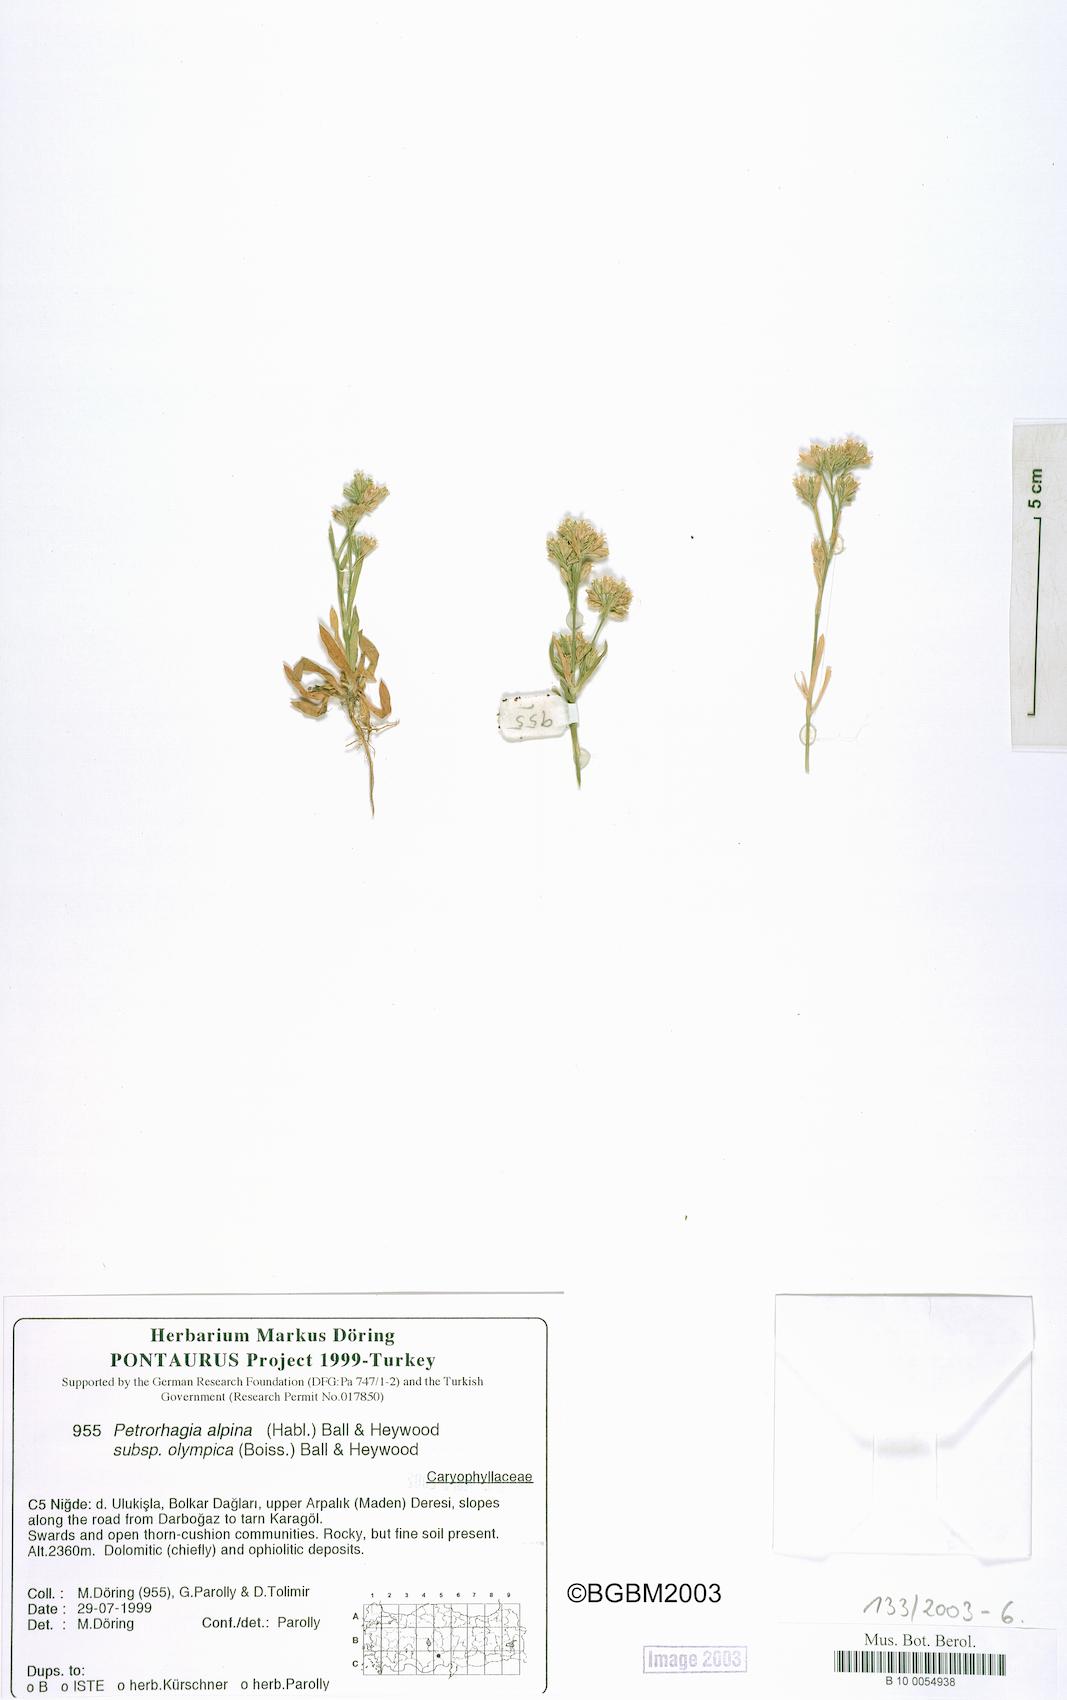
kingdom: Plantae
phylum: Tracheophyta
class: Magnoliopsida
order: Caryophyllales
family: Caryophyllaceae
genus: Petrorhagia
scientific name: Petrorhagia alpina
